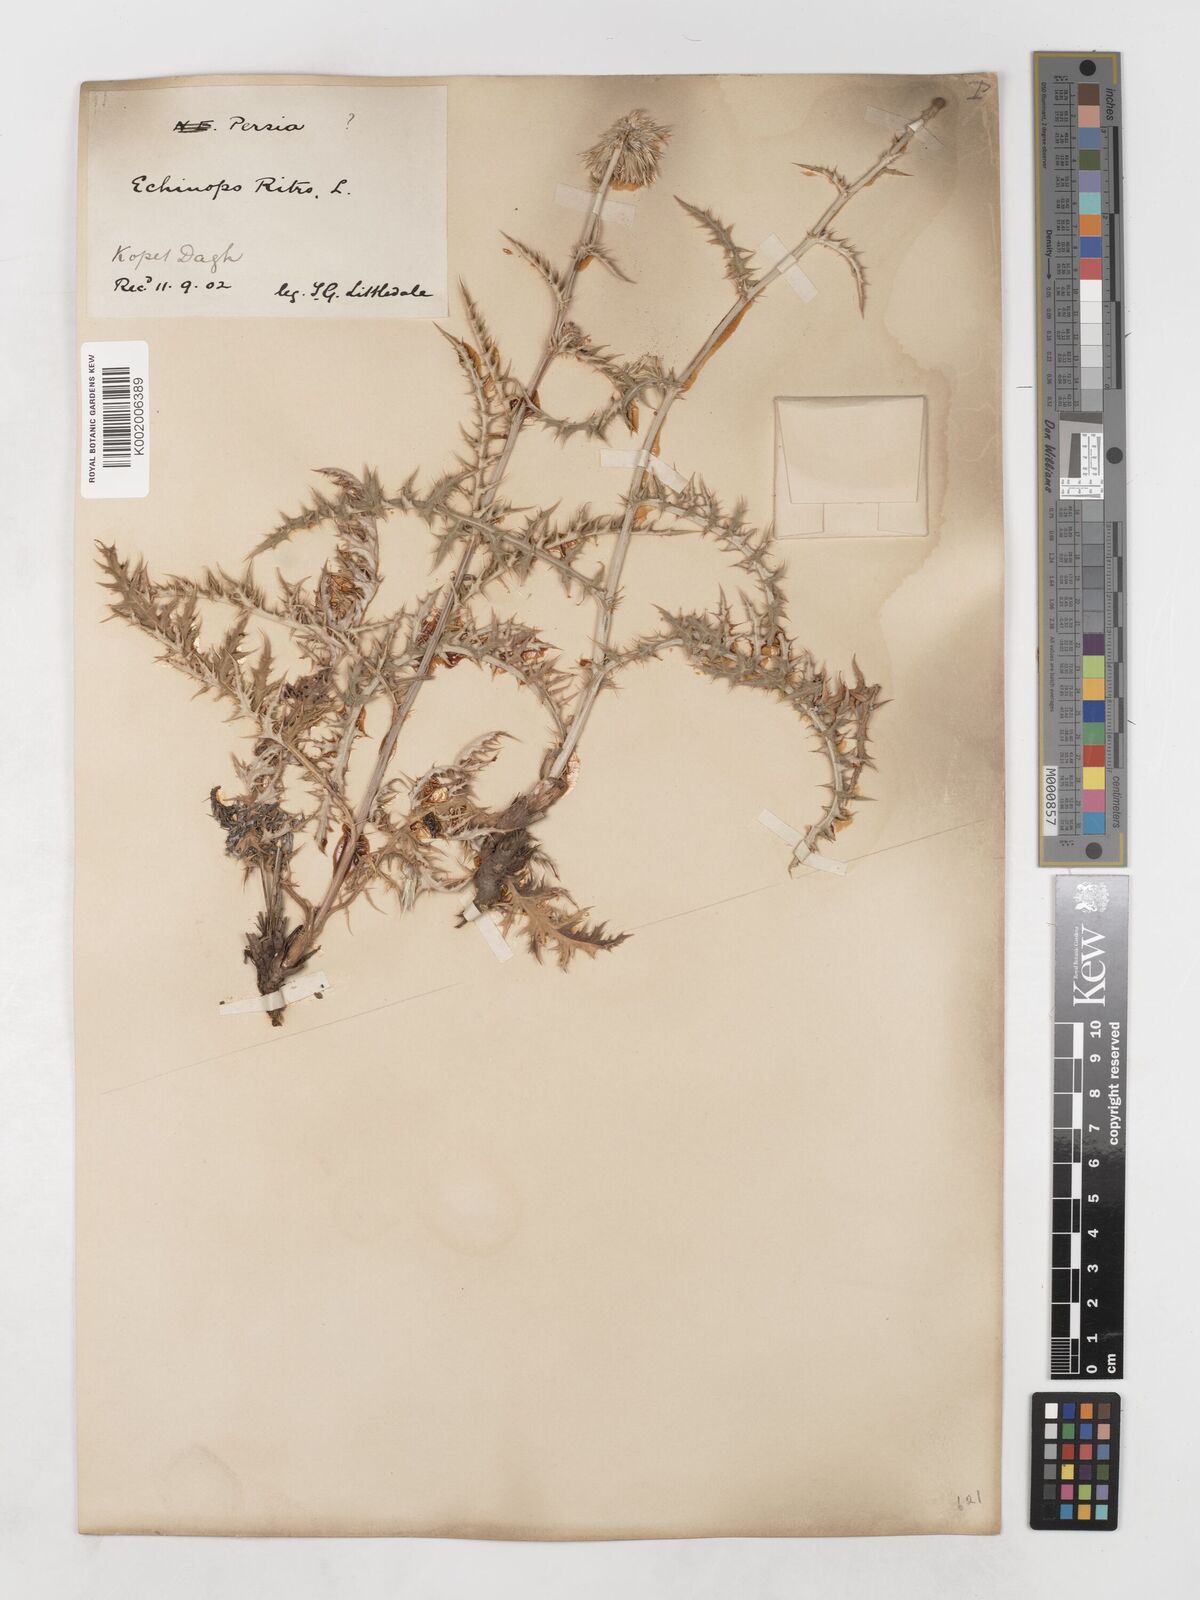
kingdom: Plantae
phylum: Tracheophyta
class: Magnoliopsida
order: Asterales
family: Asteraceae
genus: Echinops
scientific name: Echinops ritrodes
